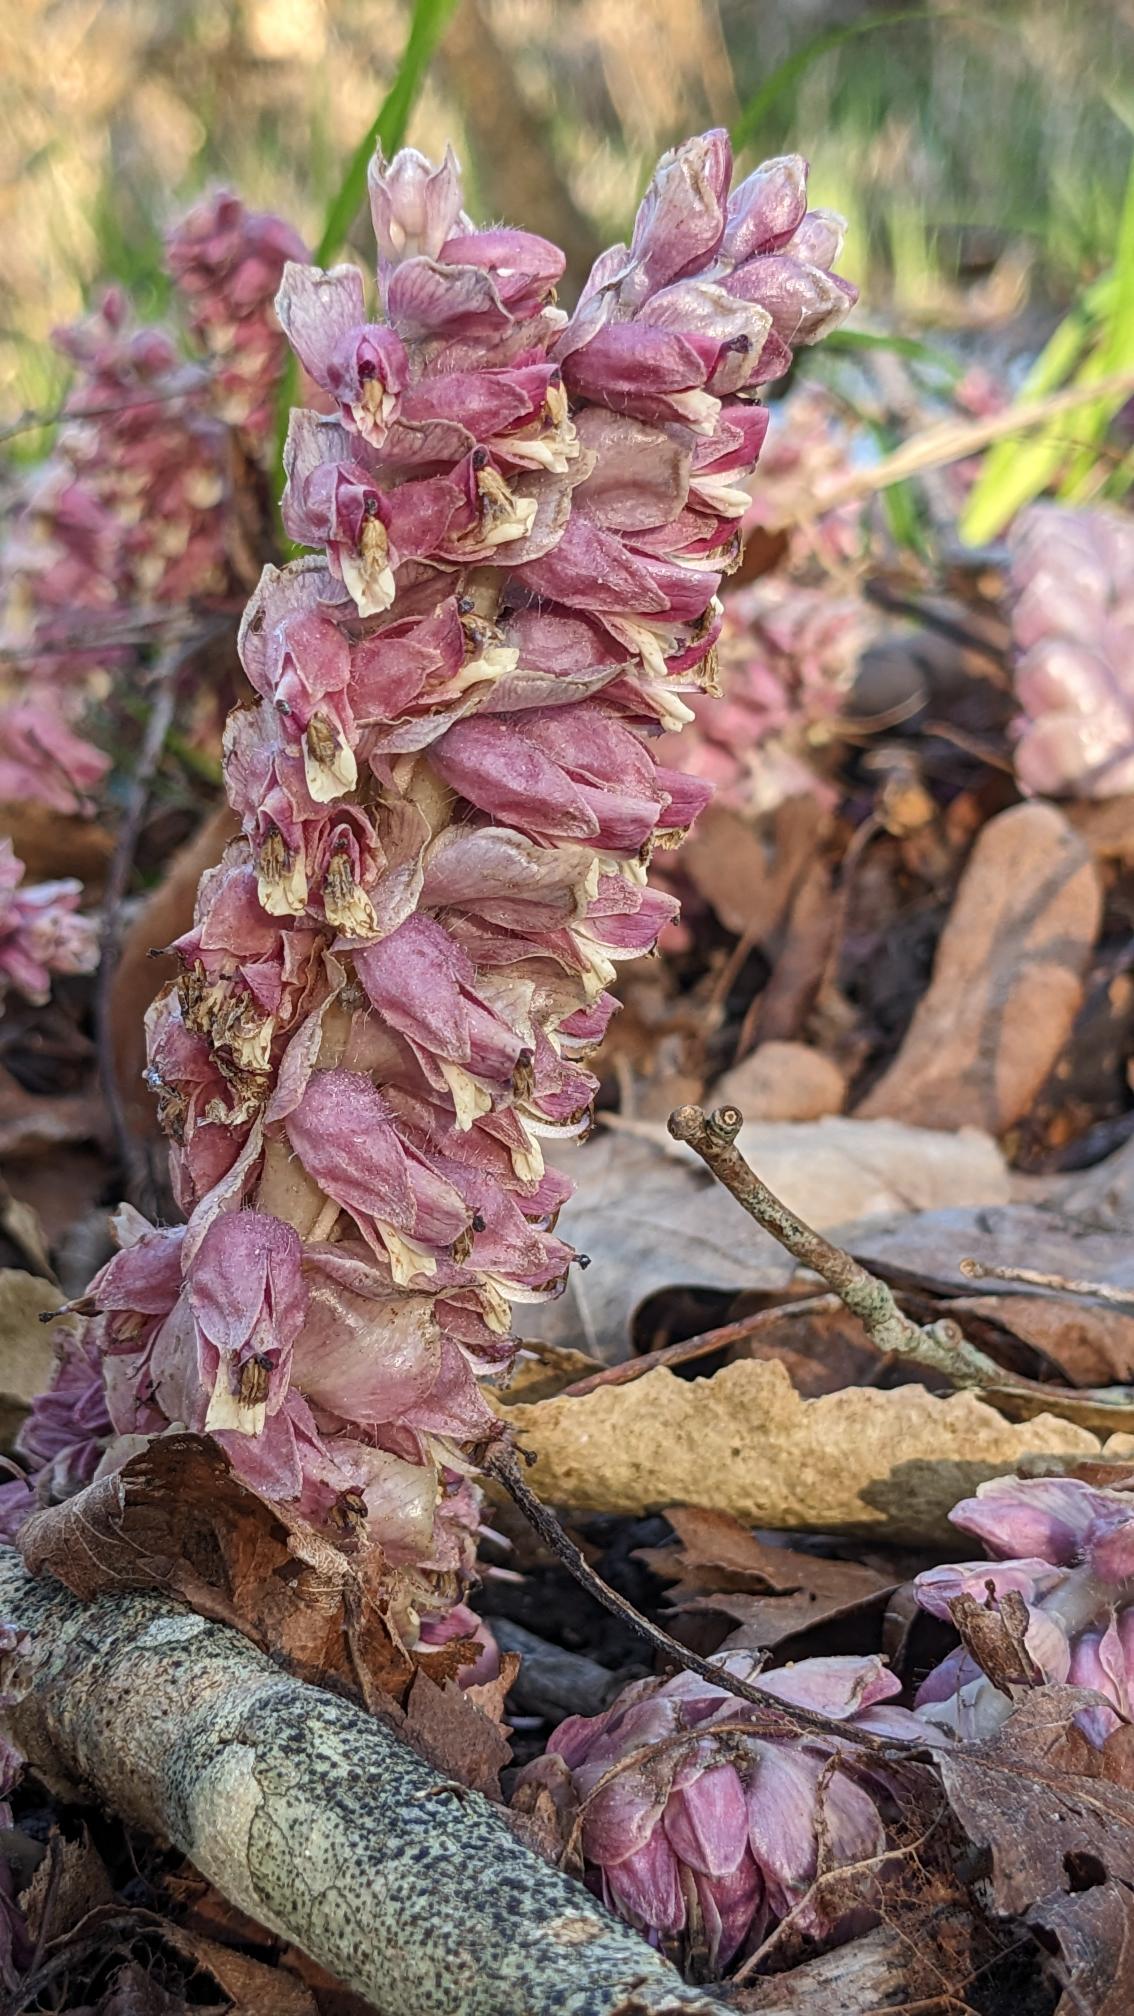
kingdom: Plantae
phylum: Tracheophyta
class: Magnoliopsida
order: Lamiales
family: Orobanchaceae
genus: Lathraea
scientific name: Lathraea squamaria
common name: Skælrod
